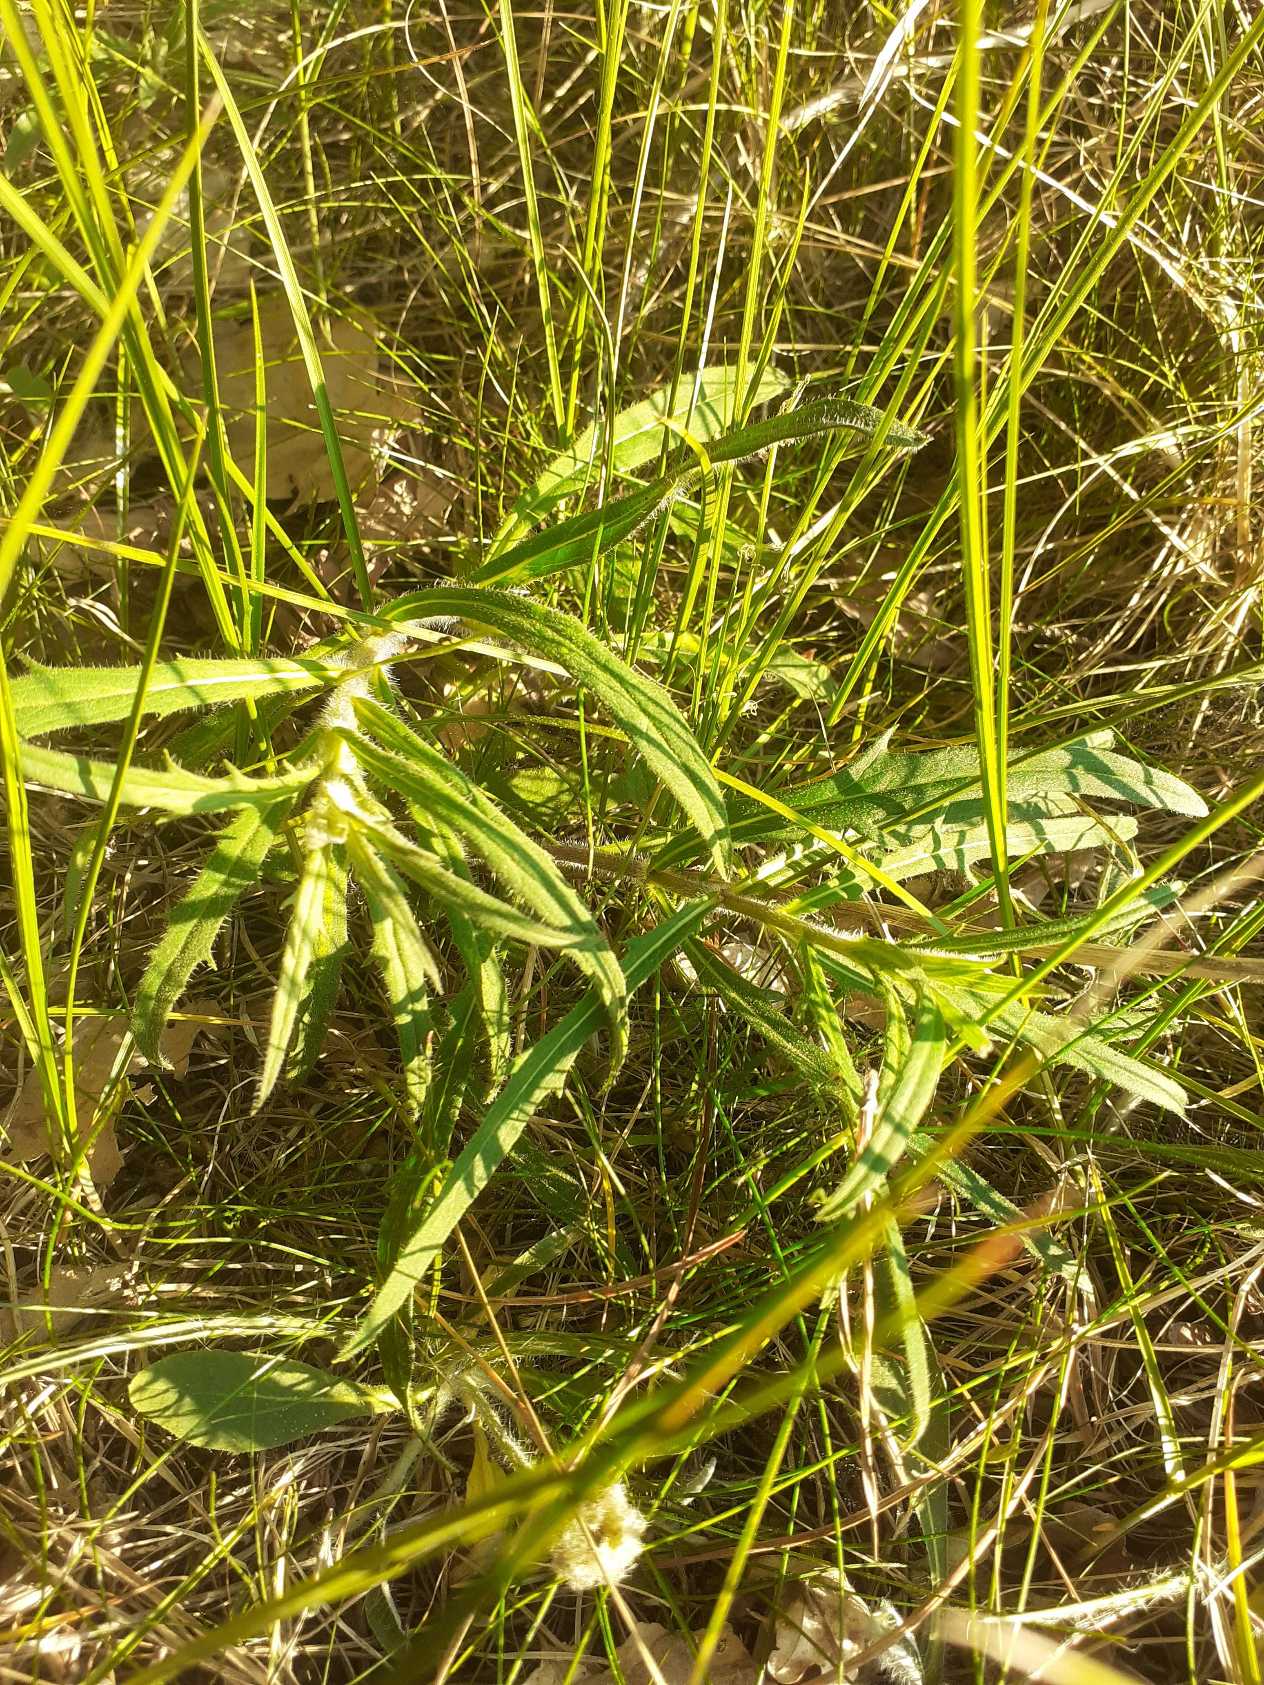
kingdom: Plantae
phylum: Tracheophyta
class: Magnoliopsida
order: Asterales
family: Asteraceae
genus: Hieracium
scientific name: Hieracium umbellatum
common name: Smalbladet høgeurt
